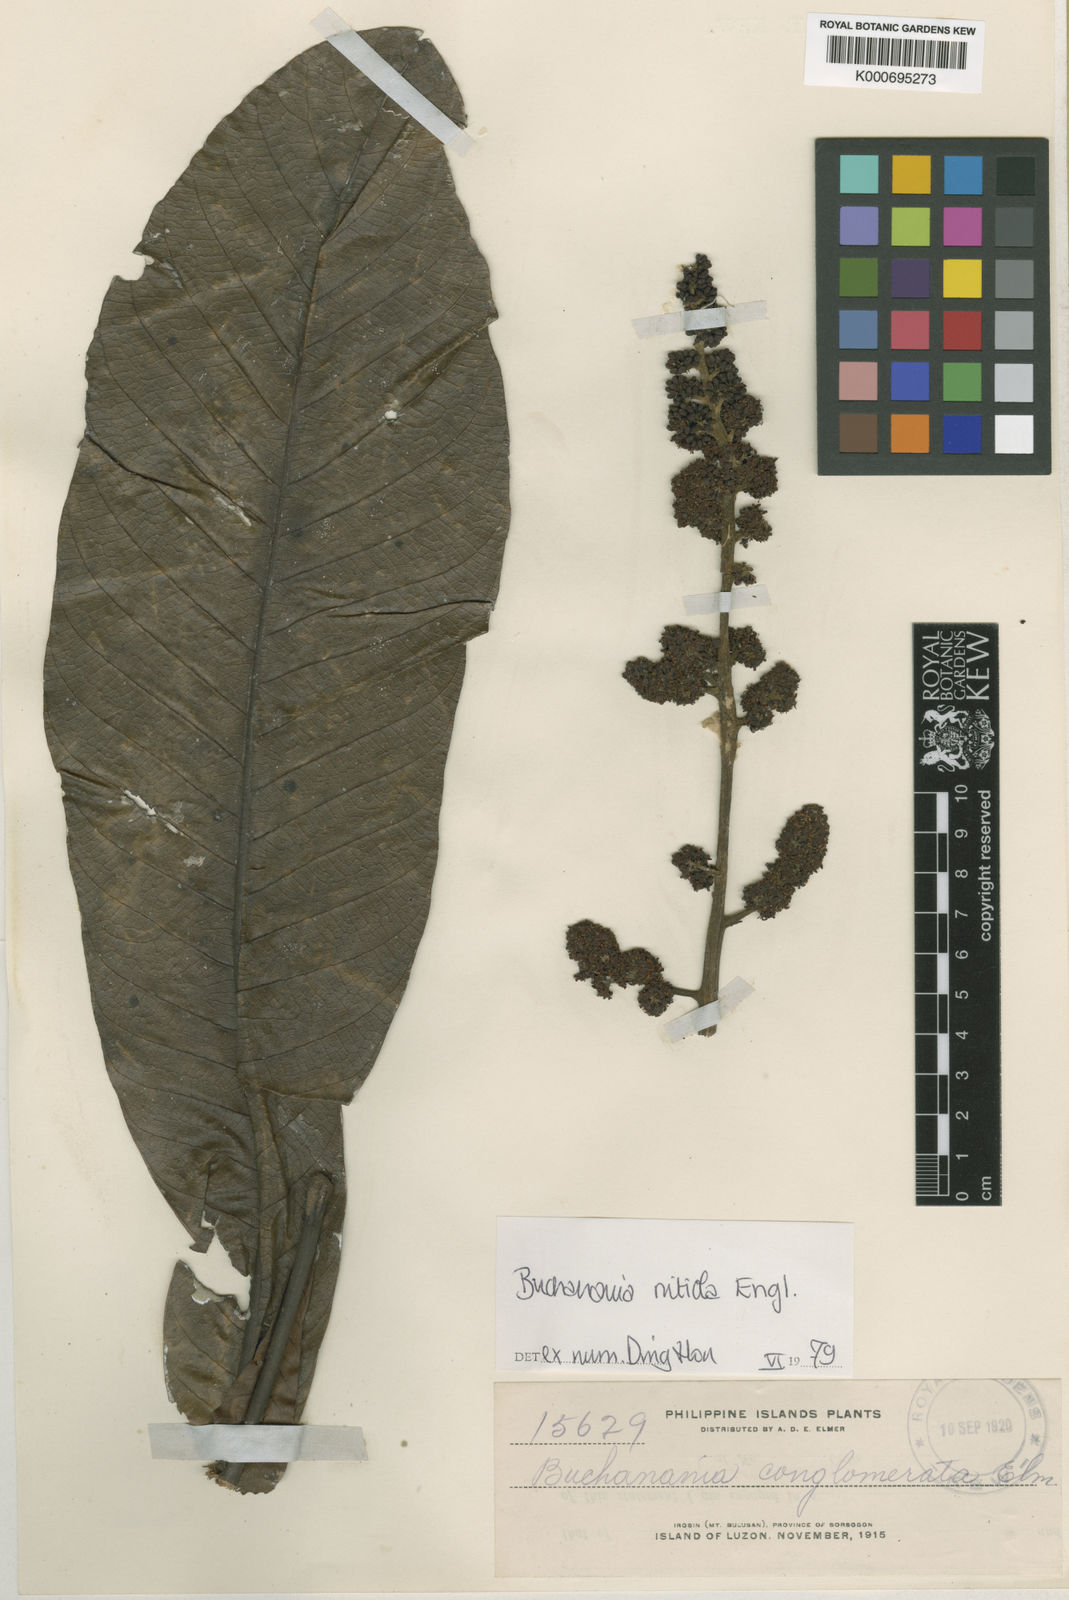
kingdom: Plantae
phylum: Tracheophyta
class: Magnoliopsida
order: Sapindales
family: Anacardiaceae
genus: Buchanania
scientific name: Buchanania nitida
